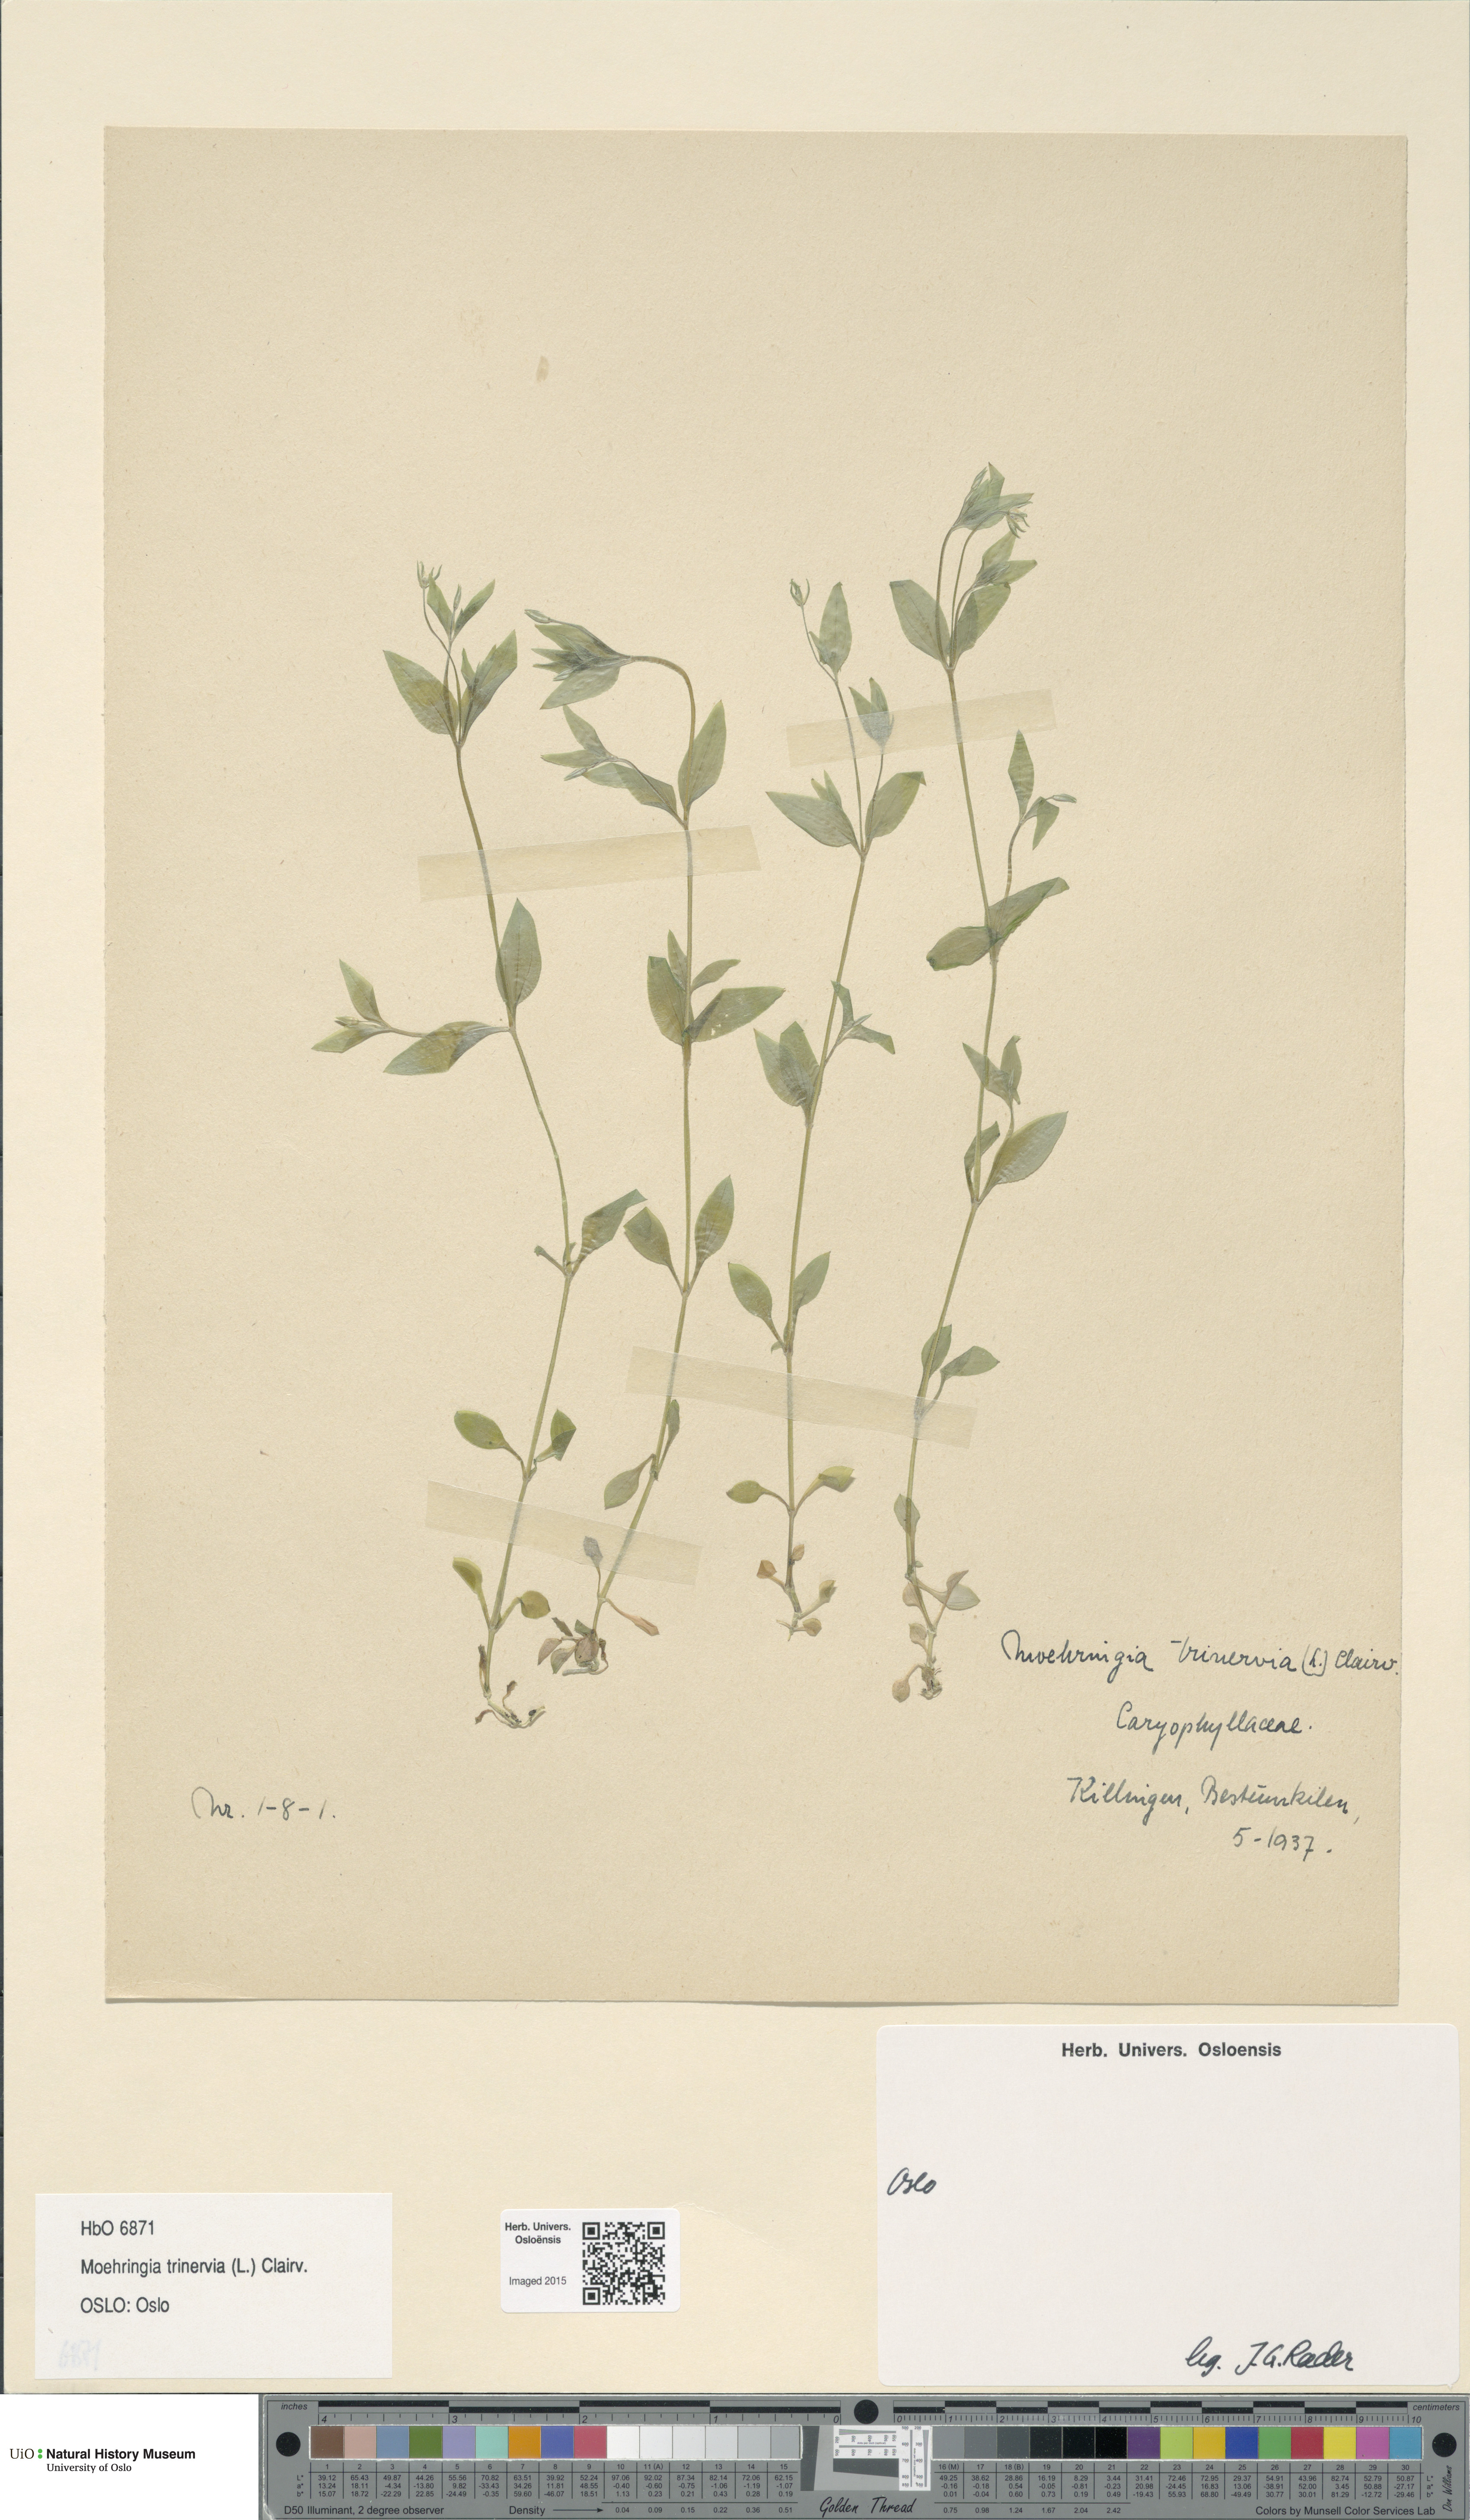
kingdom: Plantae
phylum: Tracheophyta
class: Magnoliopsida
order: Caryophyllales
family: Caryophyllaceae
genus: Moehringia
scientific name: Moehringia trinervia
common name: Three-nerved sandwort
